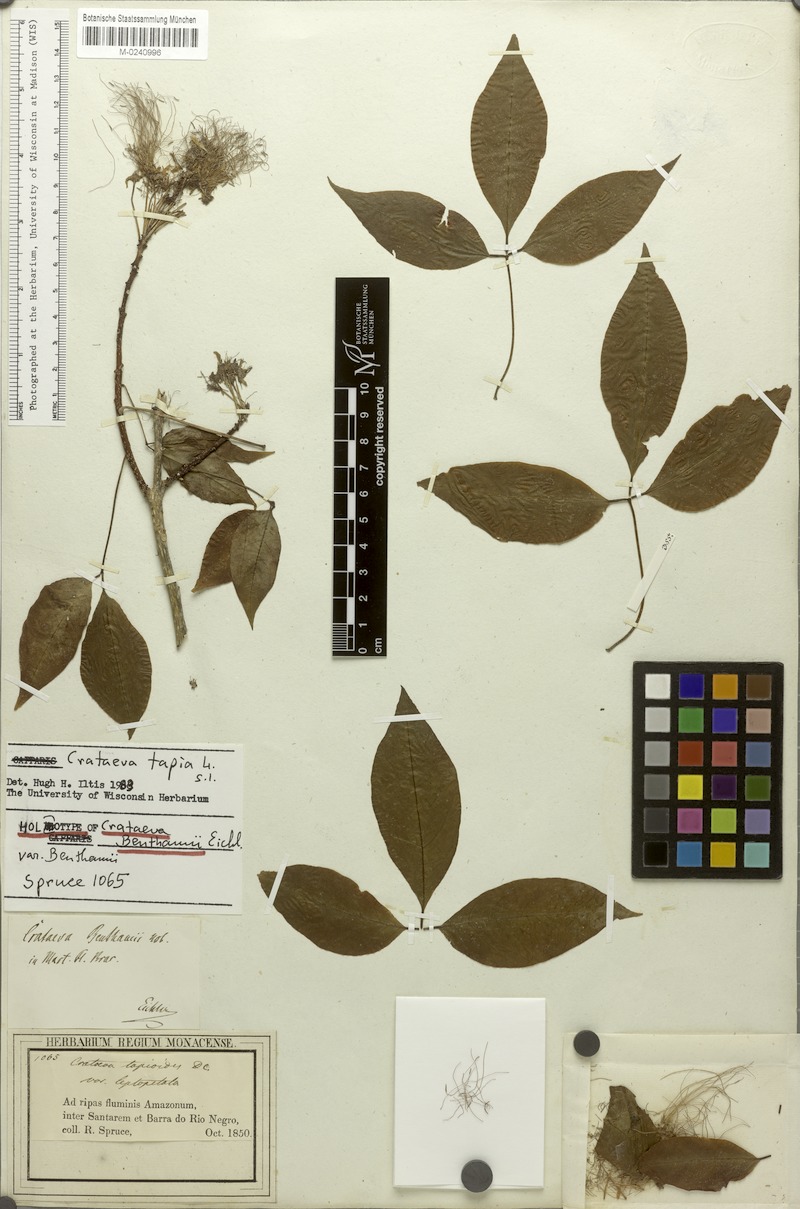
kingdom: Plantae
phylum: Tracheophyta
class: Magnoliopsida
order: Brassicales
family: Capparaceae
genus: Crateva
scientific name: Crateva tapia
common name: Garlic-pear
